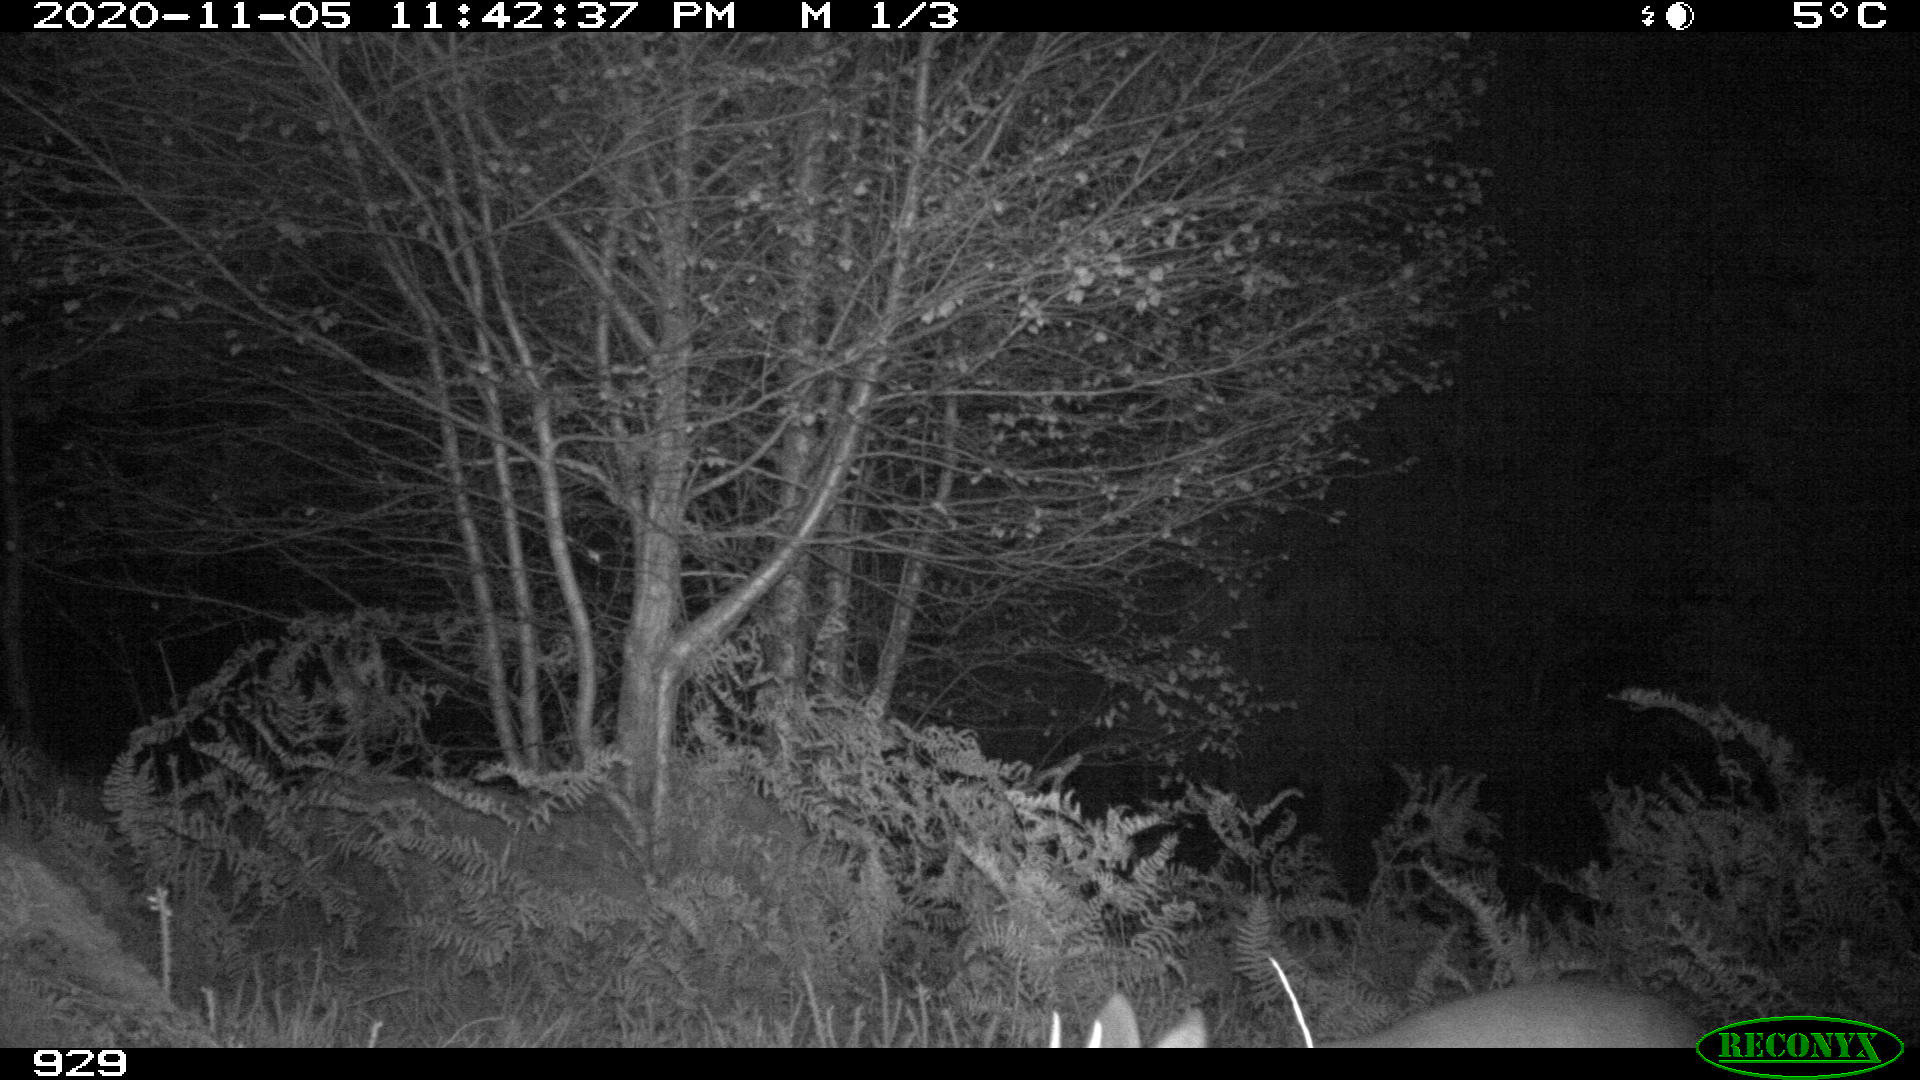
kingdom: Animalia
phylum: Chordata
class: Mammalia
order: Artiodactyla
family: Cervidae
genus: Capreolus
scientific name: Capreolus capreolus
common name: Western roe deer
